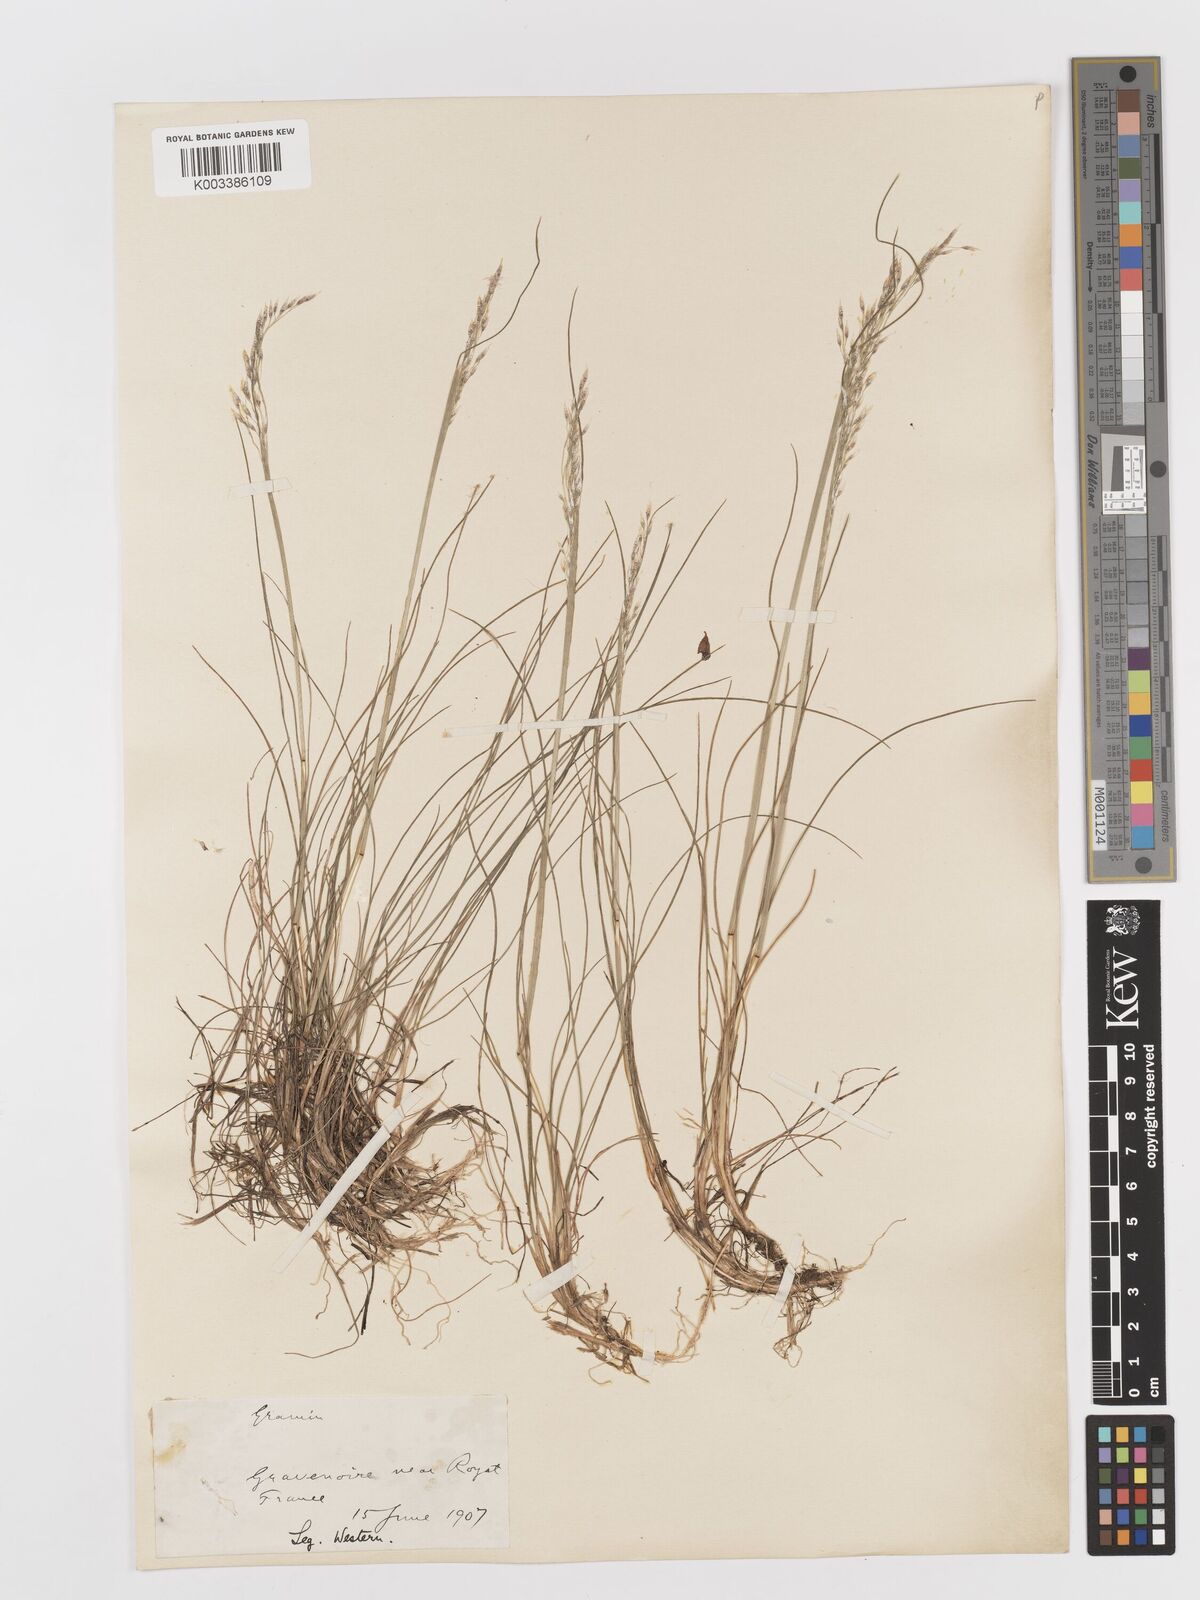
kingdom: Plantae
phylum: Tracheophyta
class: Liliopsida
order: Poales
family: Poaceae
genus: Avenella
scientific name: Avenella flexuosa
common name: Wavy hairgrass
